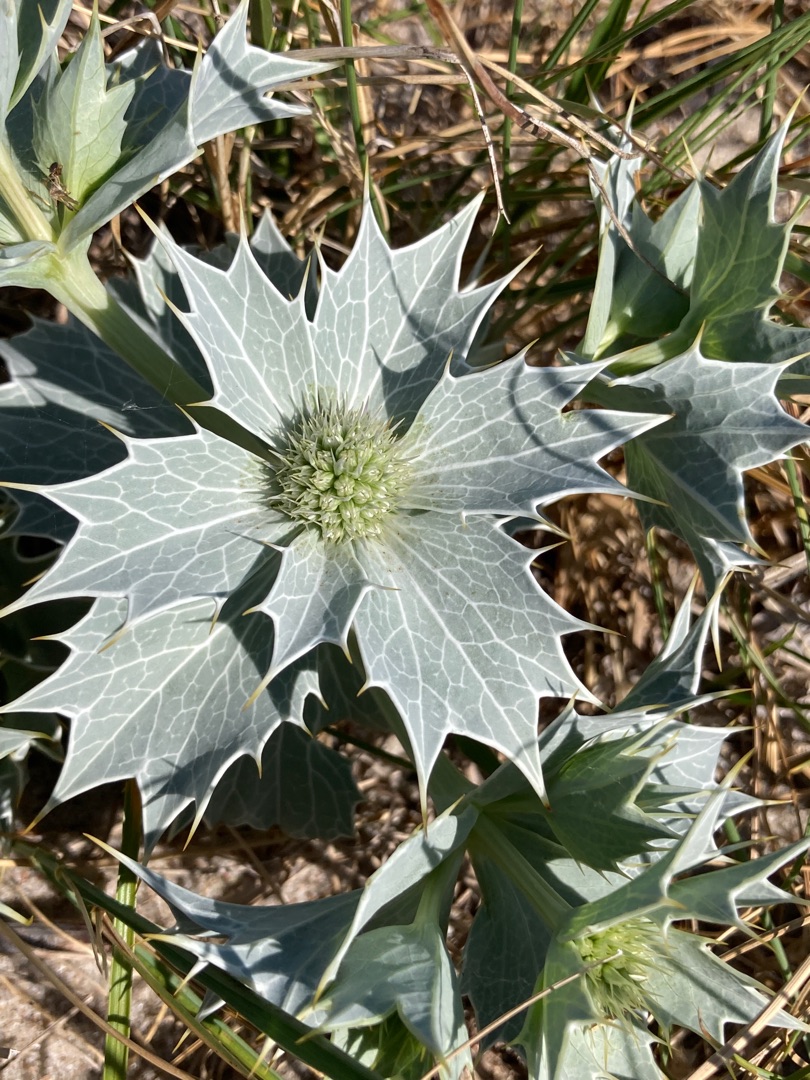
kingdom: Plantae
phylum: Tracheophyta
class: Magnoliopsida
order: Apiales
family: Apiaceae
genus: Eryngium
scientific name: Eryngium maritimum
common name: Strand-mandstro
